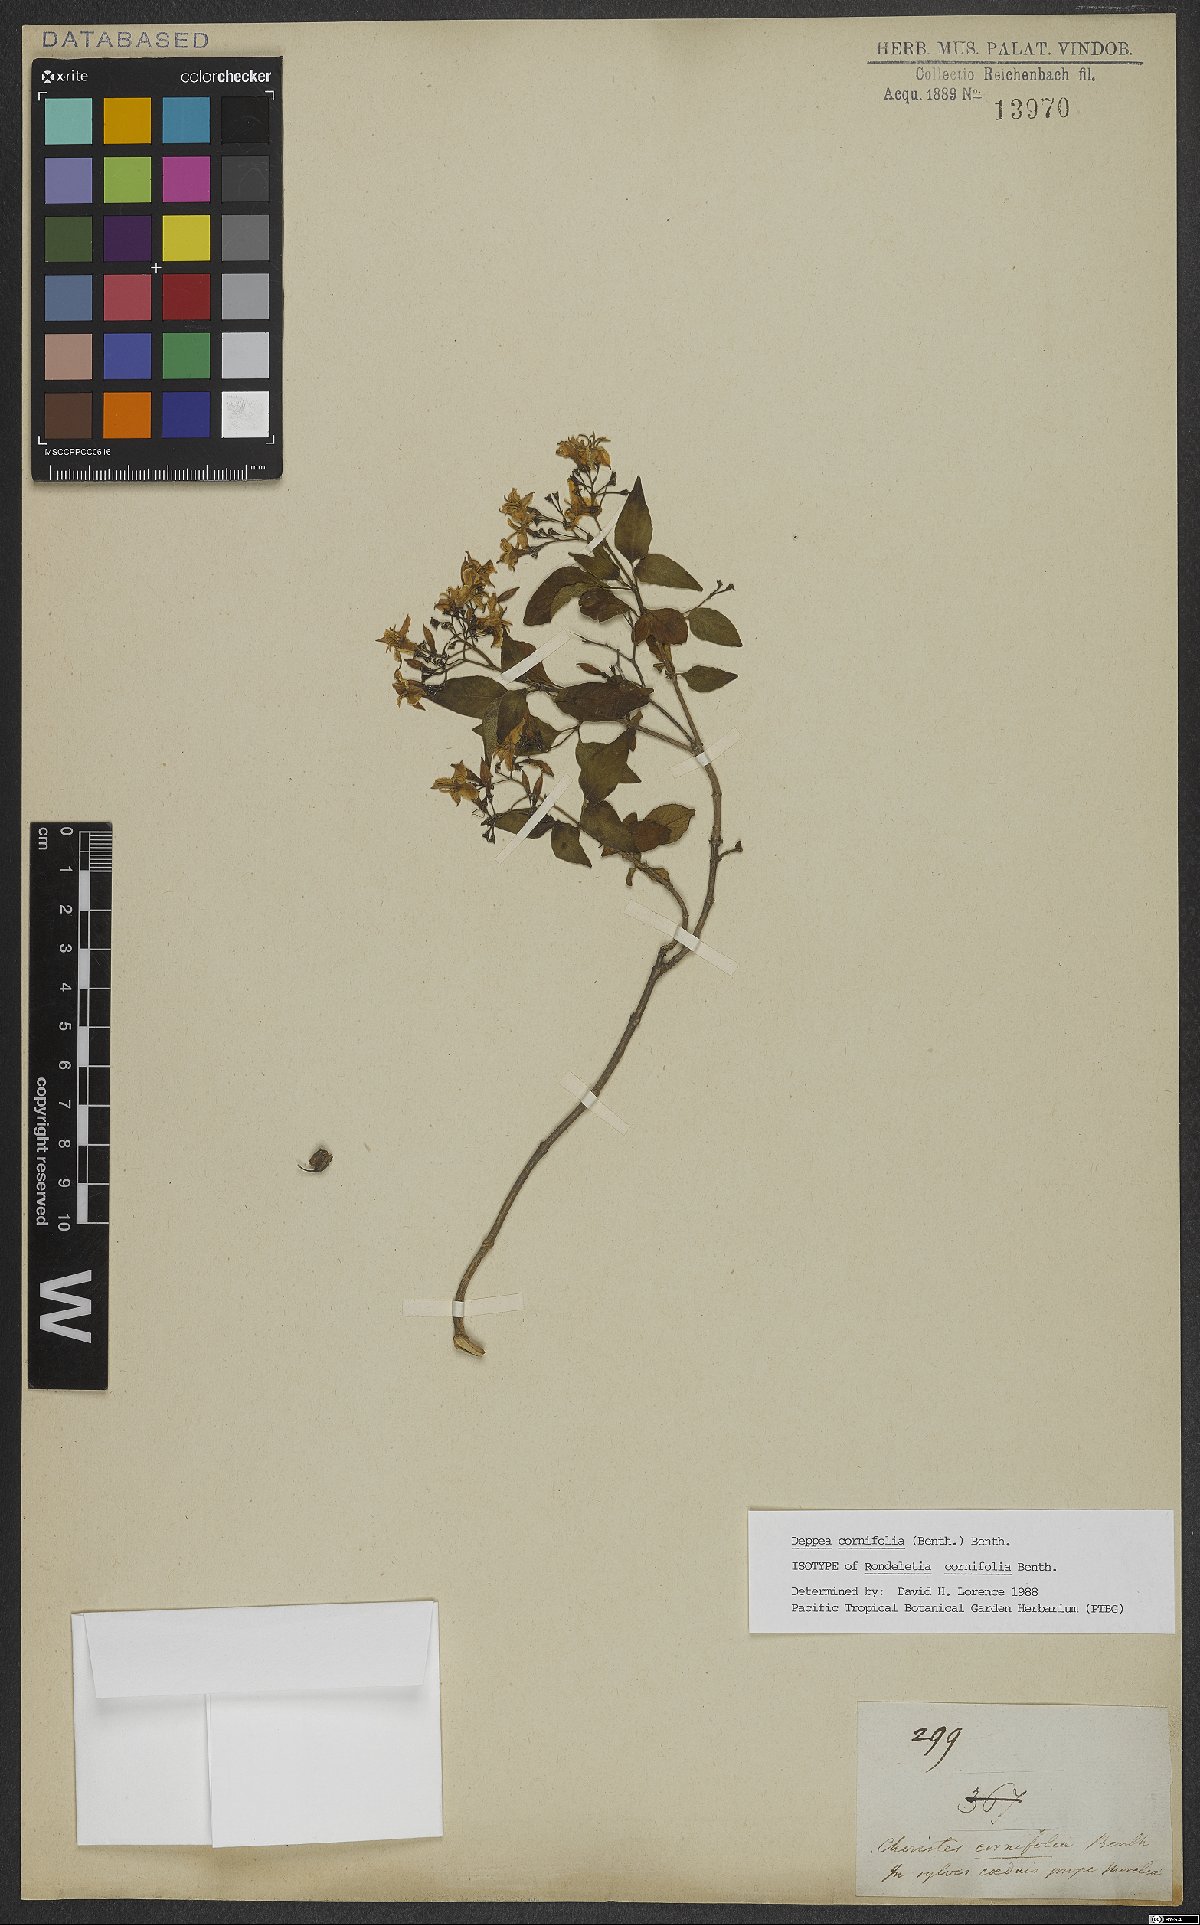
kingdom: Plantae
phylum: Tracheophyta
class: Magnoliopsida
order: Gentianales
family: Rubiaceae
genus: Deppea
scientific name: Deppea cornifolia
